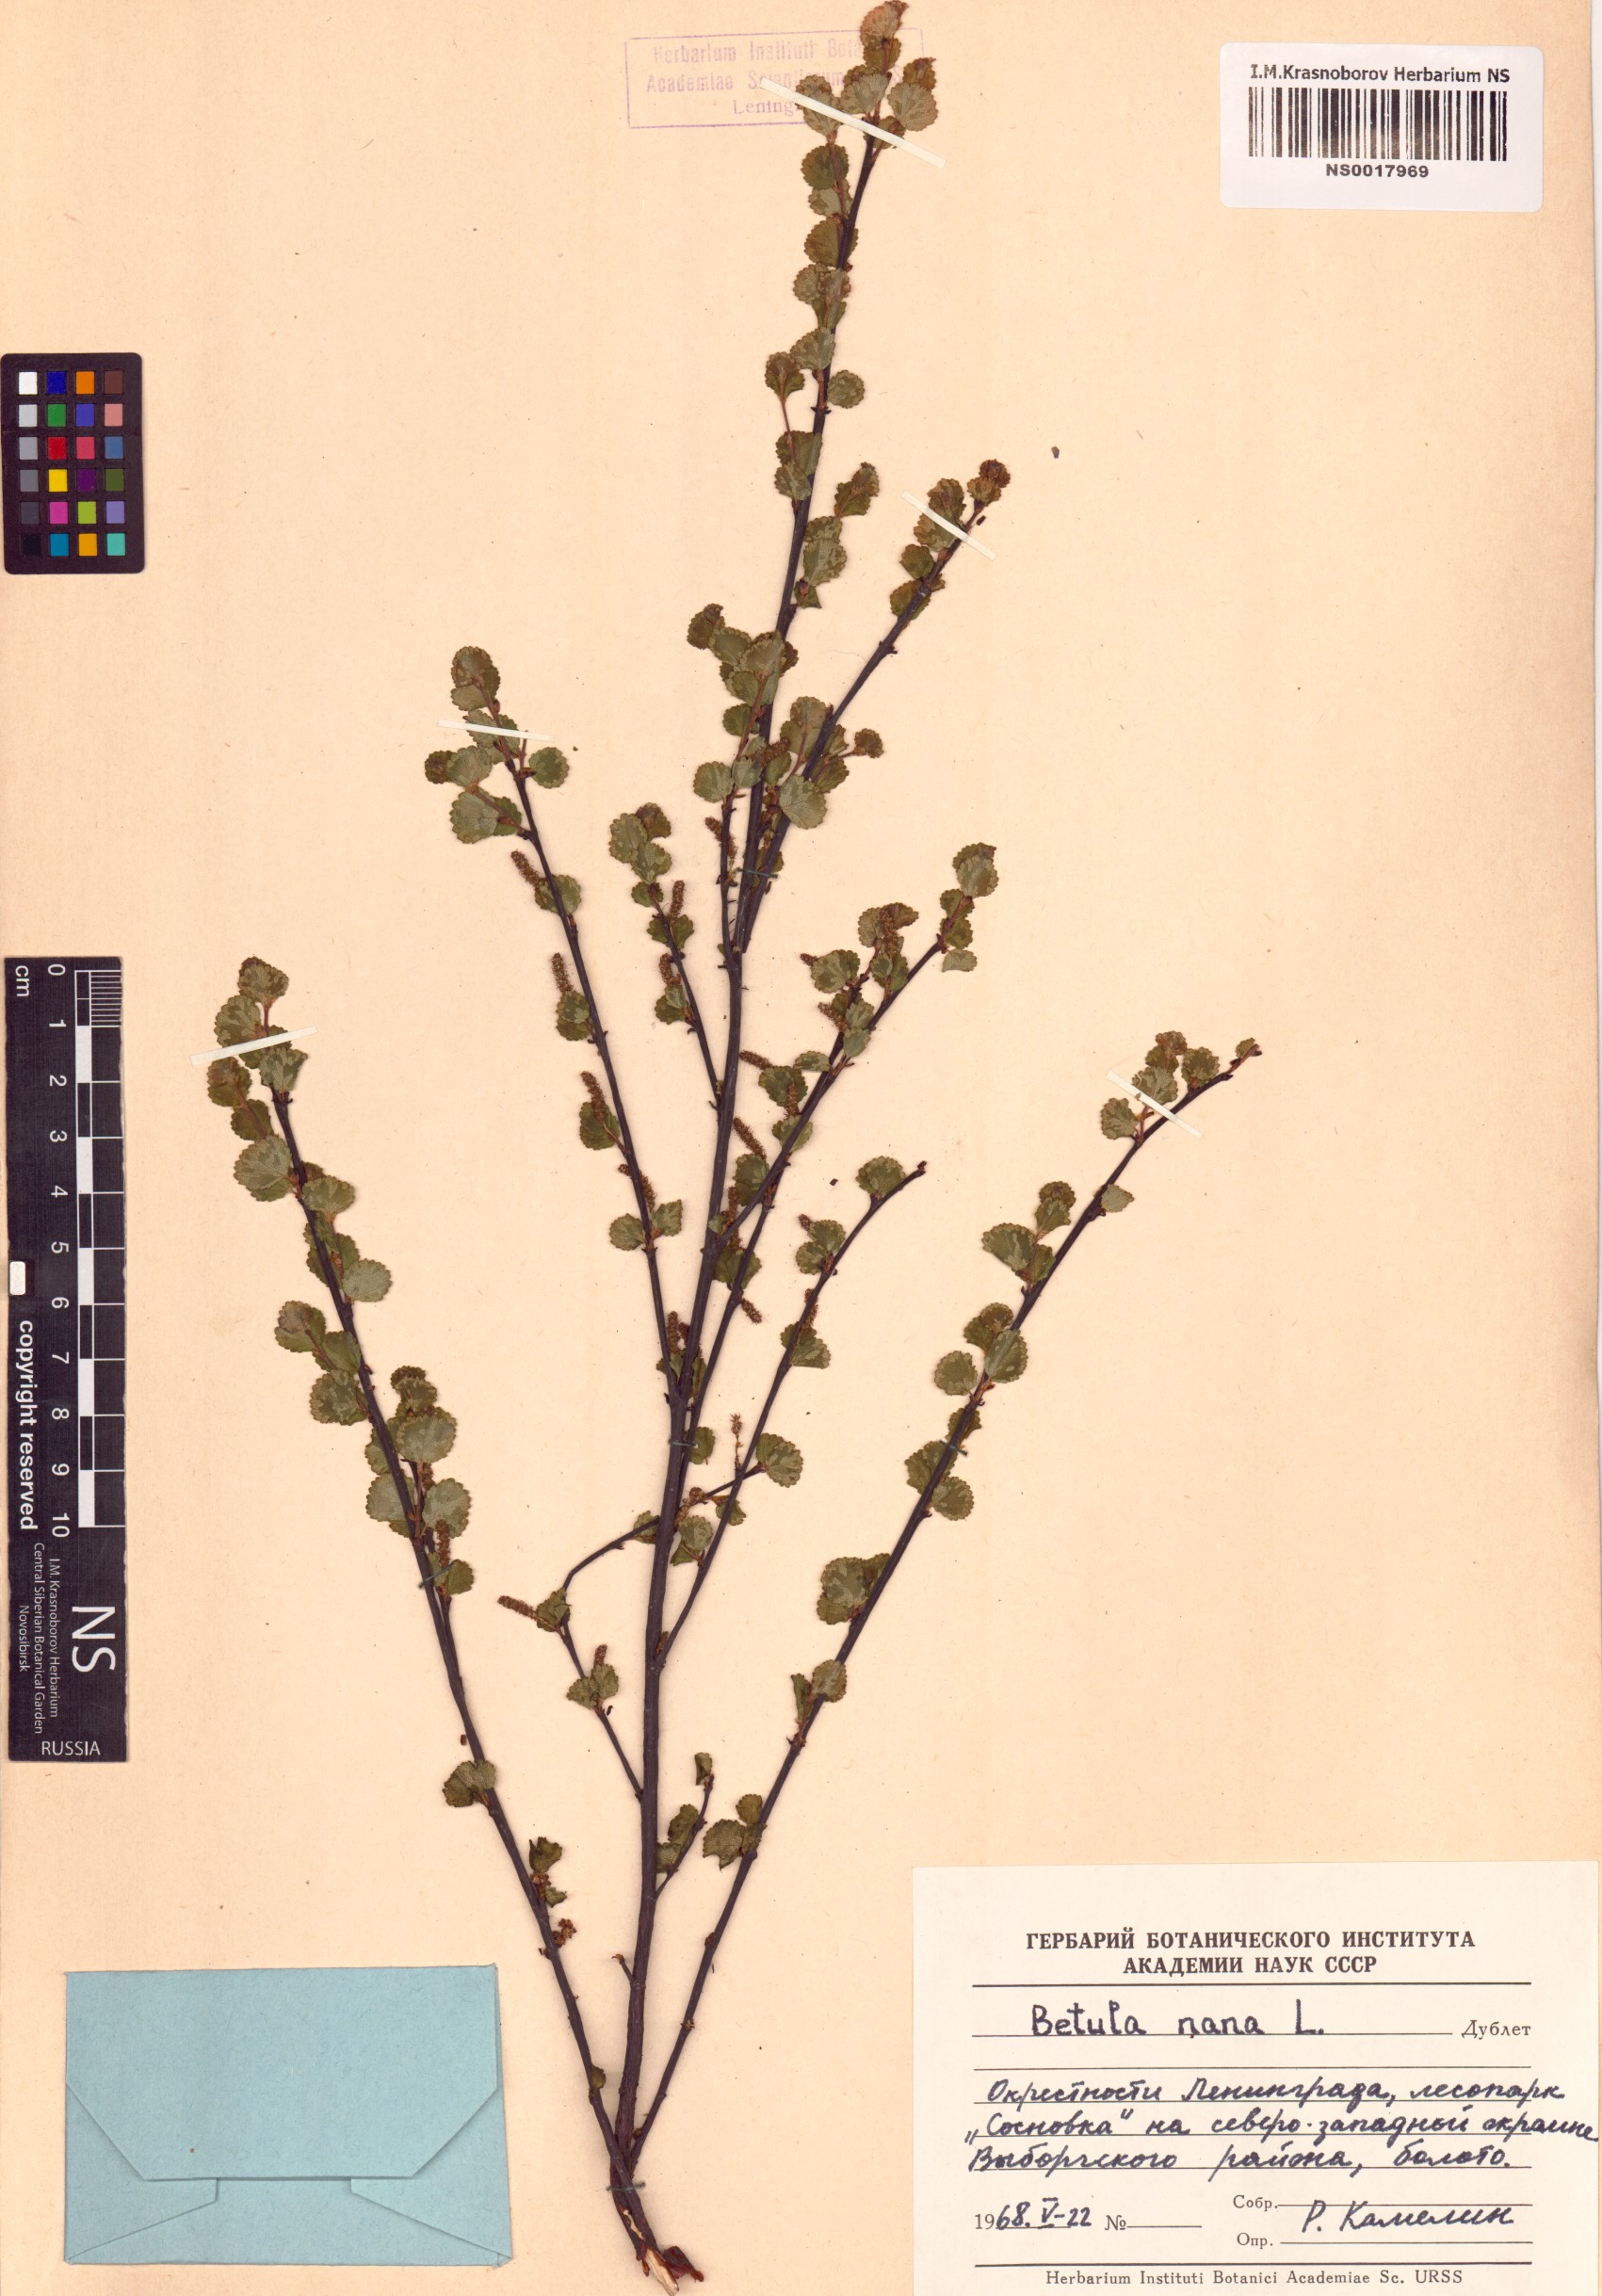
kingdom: Plantae
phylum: Tracheophyta
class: Magnoliopsida
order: Fagales
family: Betulaceae
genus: Betula
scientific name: Betula nana
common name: Arctic dwarf birch
